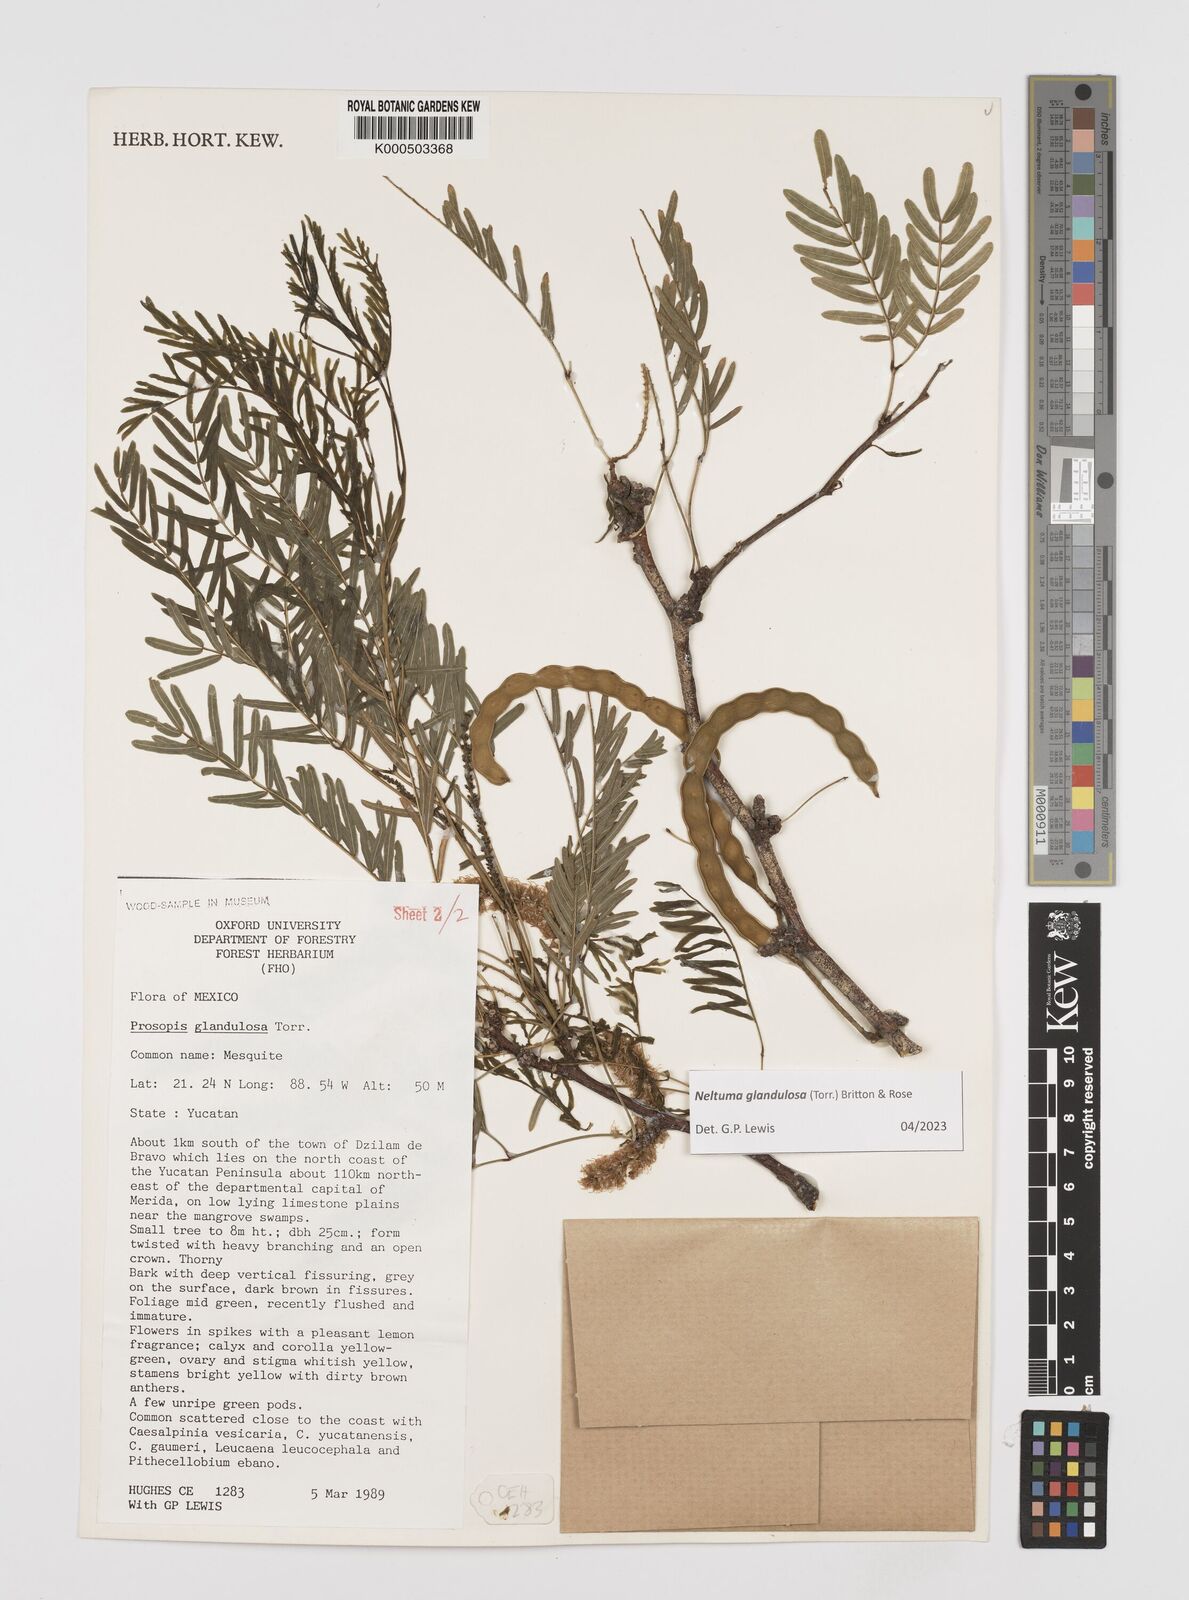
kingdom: Plantae
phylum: Tracheophyta
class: Magnoliopsida
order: Fabales
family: Fabaceae
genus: Prosopis
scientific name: Prosopis glandulosa
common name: Honey mesquite
